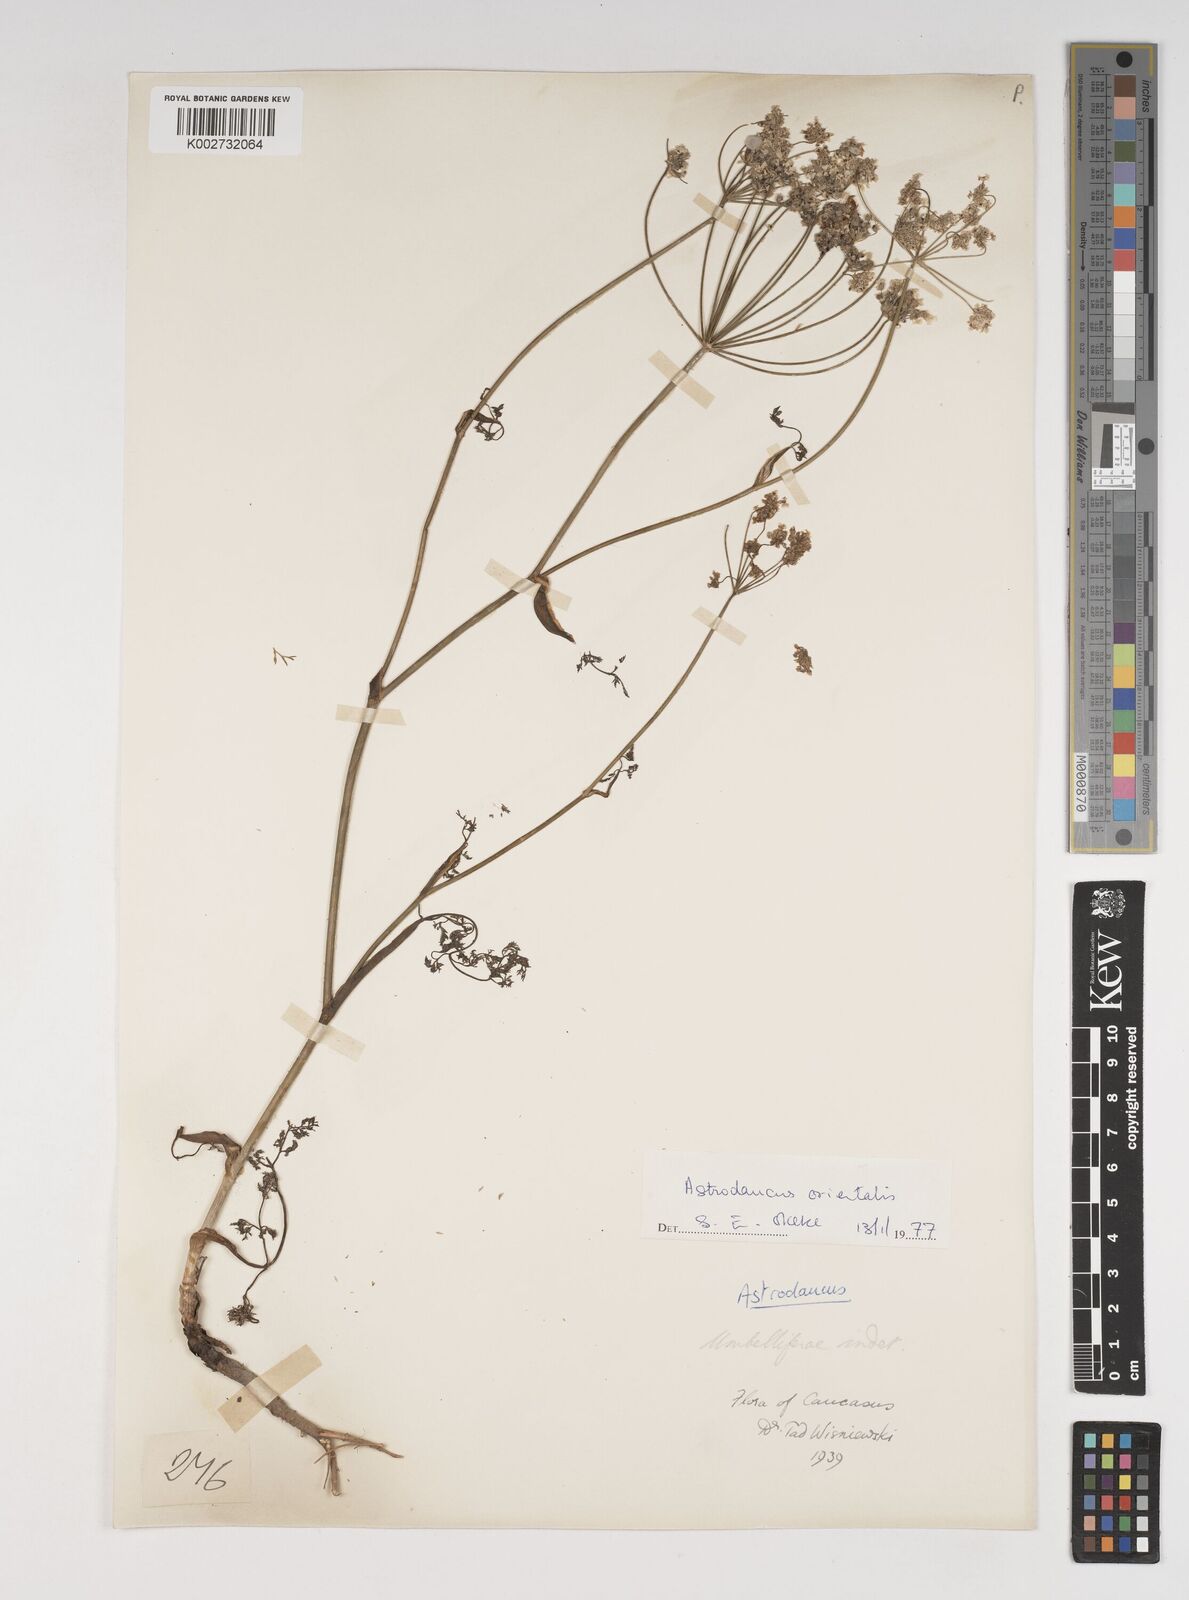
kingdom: Plantae
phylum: Tracheophyta
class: Magnoliopsida
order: Apiales
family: Apiaceae
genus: Astrodaucus
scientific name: Astrodaucus orientalis
